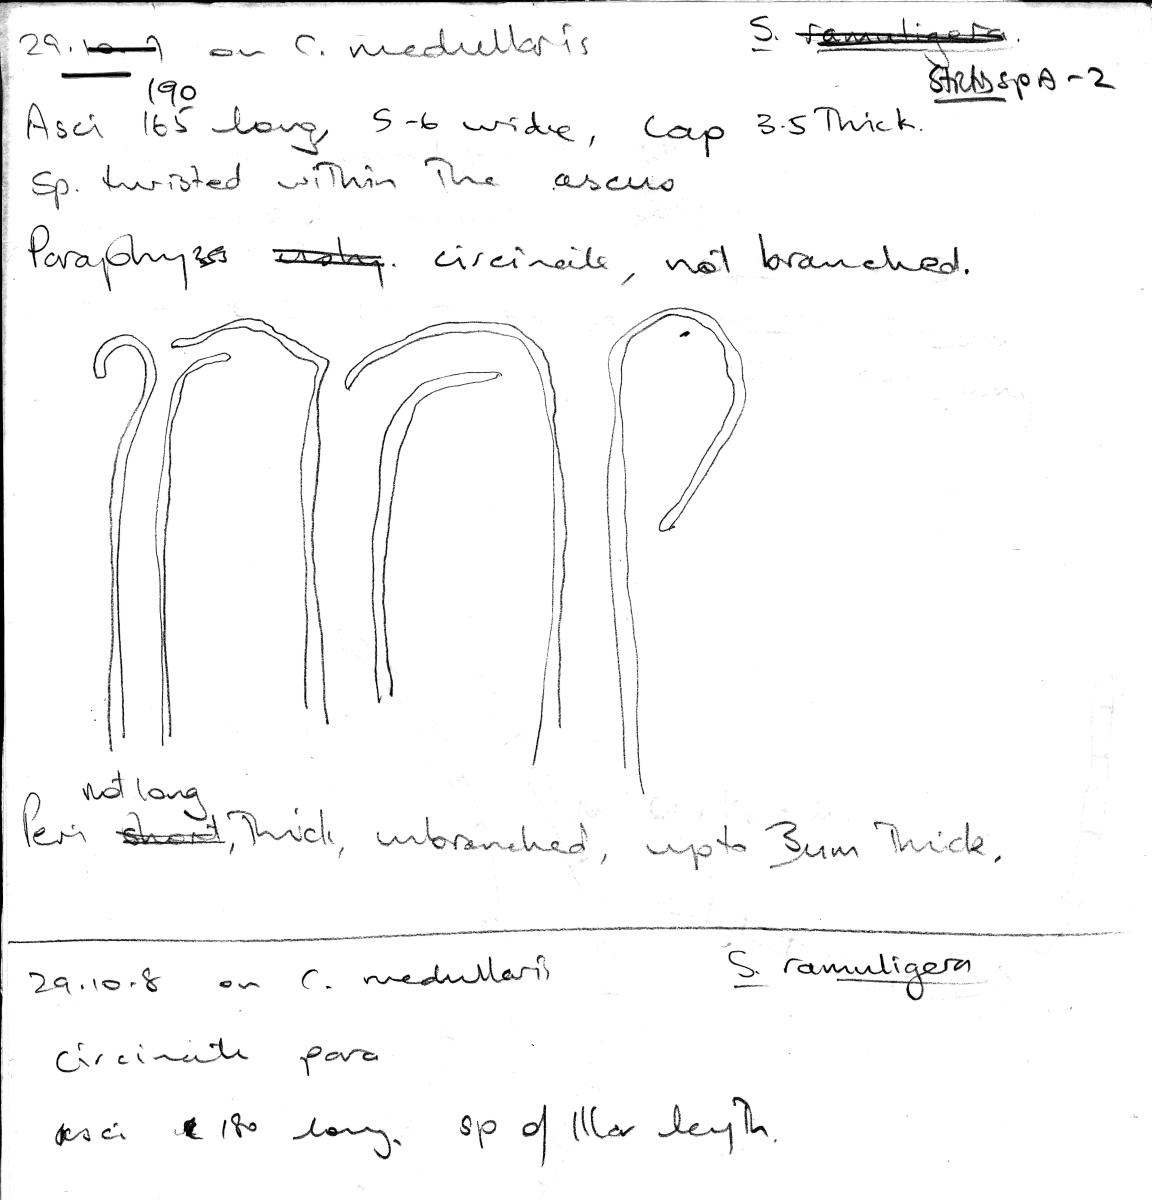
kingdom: Fungi
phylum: Ascomycota
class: Lecanoromycetes
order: Ostropales
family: Stictidaceae
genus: Stictis
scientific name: Stictis
